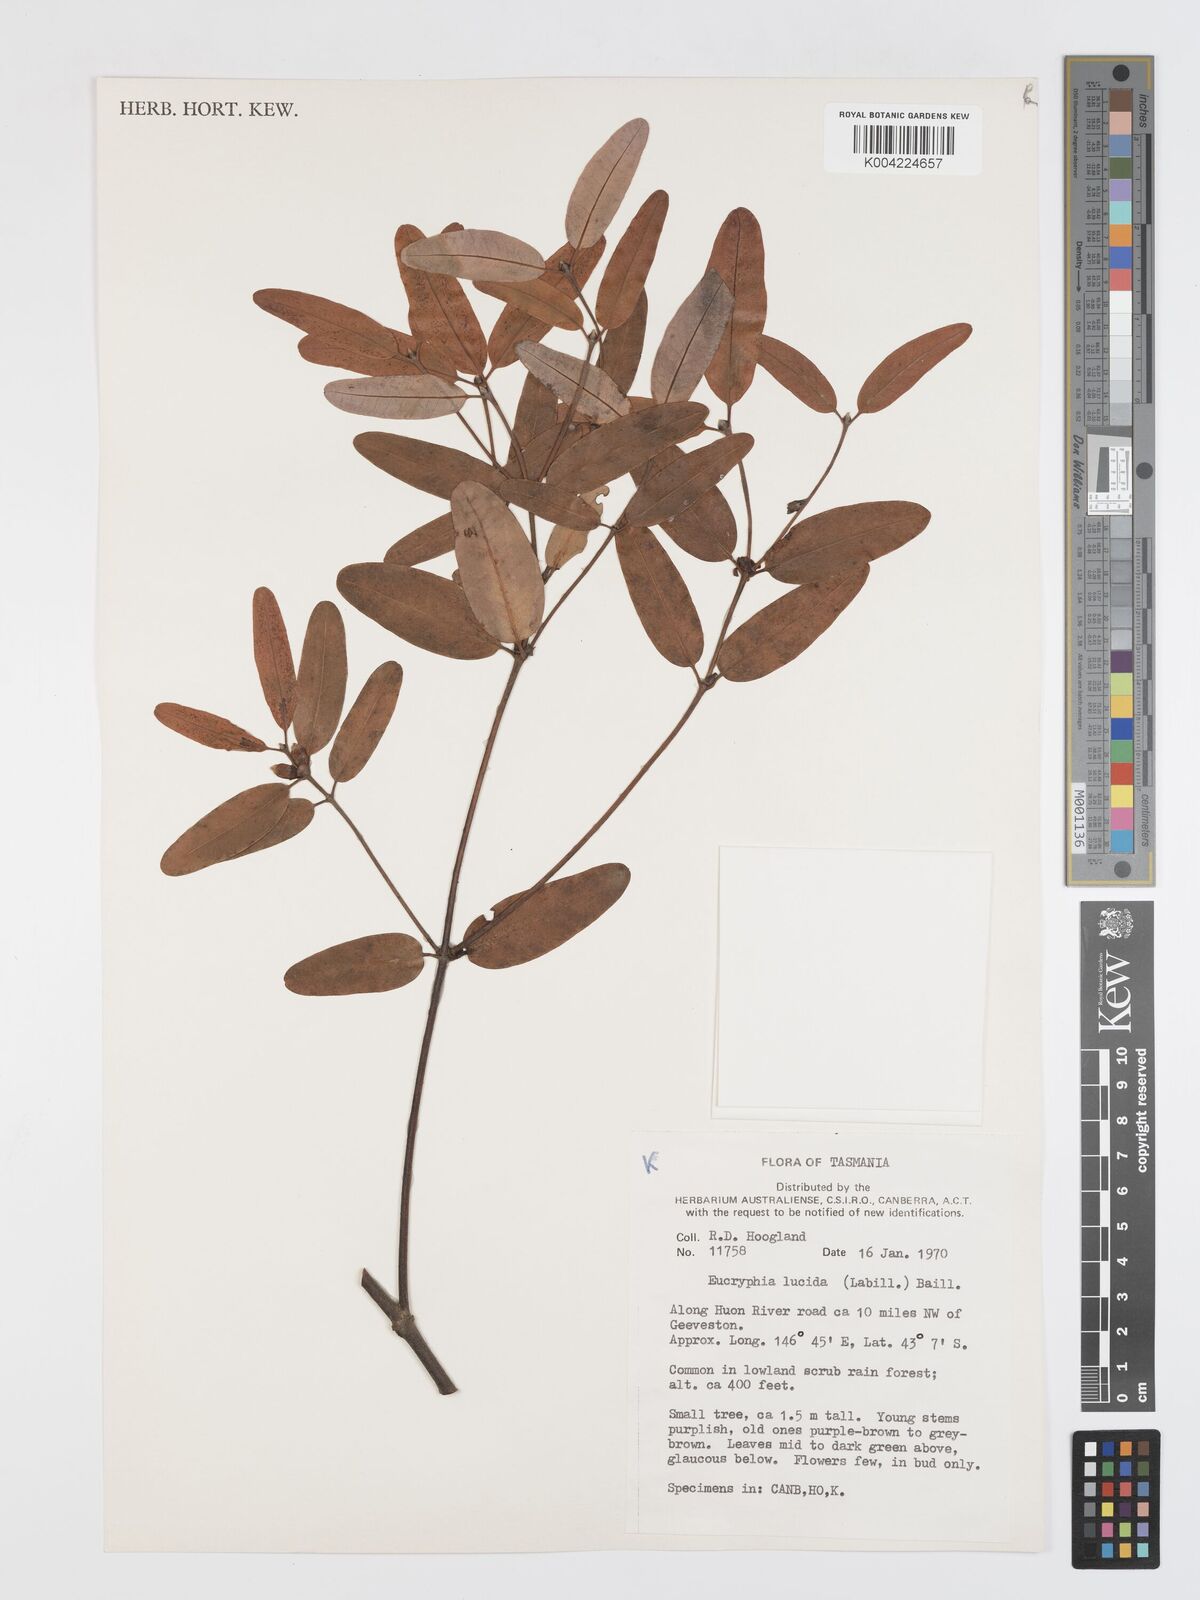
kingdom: Plantae
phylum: Tracheophyta
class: Magnoliopsida
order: Oxalidales
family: Cunoniaceae
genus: Eucryphia
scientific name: Eucryphia lucida
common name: Leatherwood
